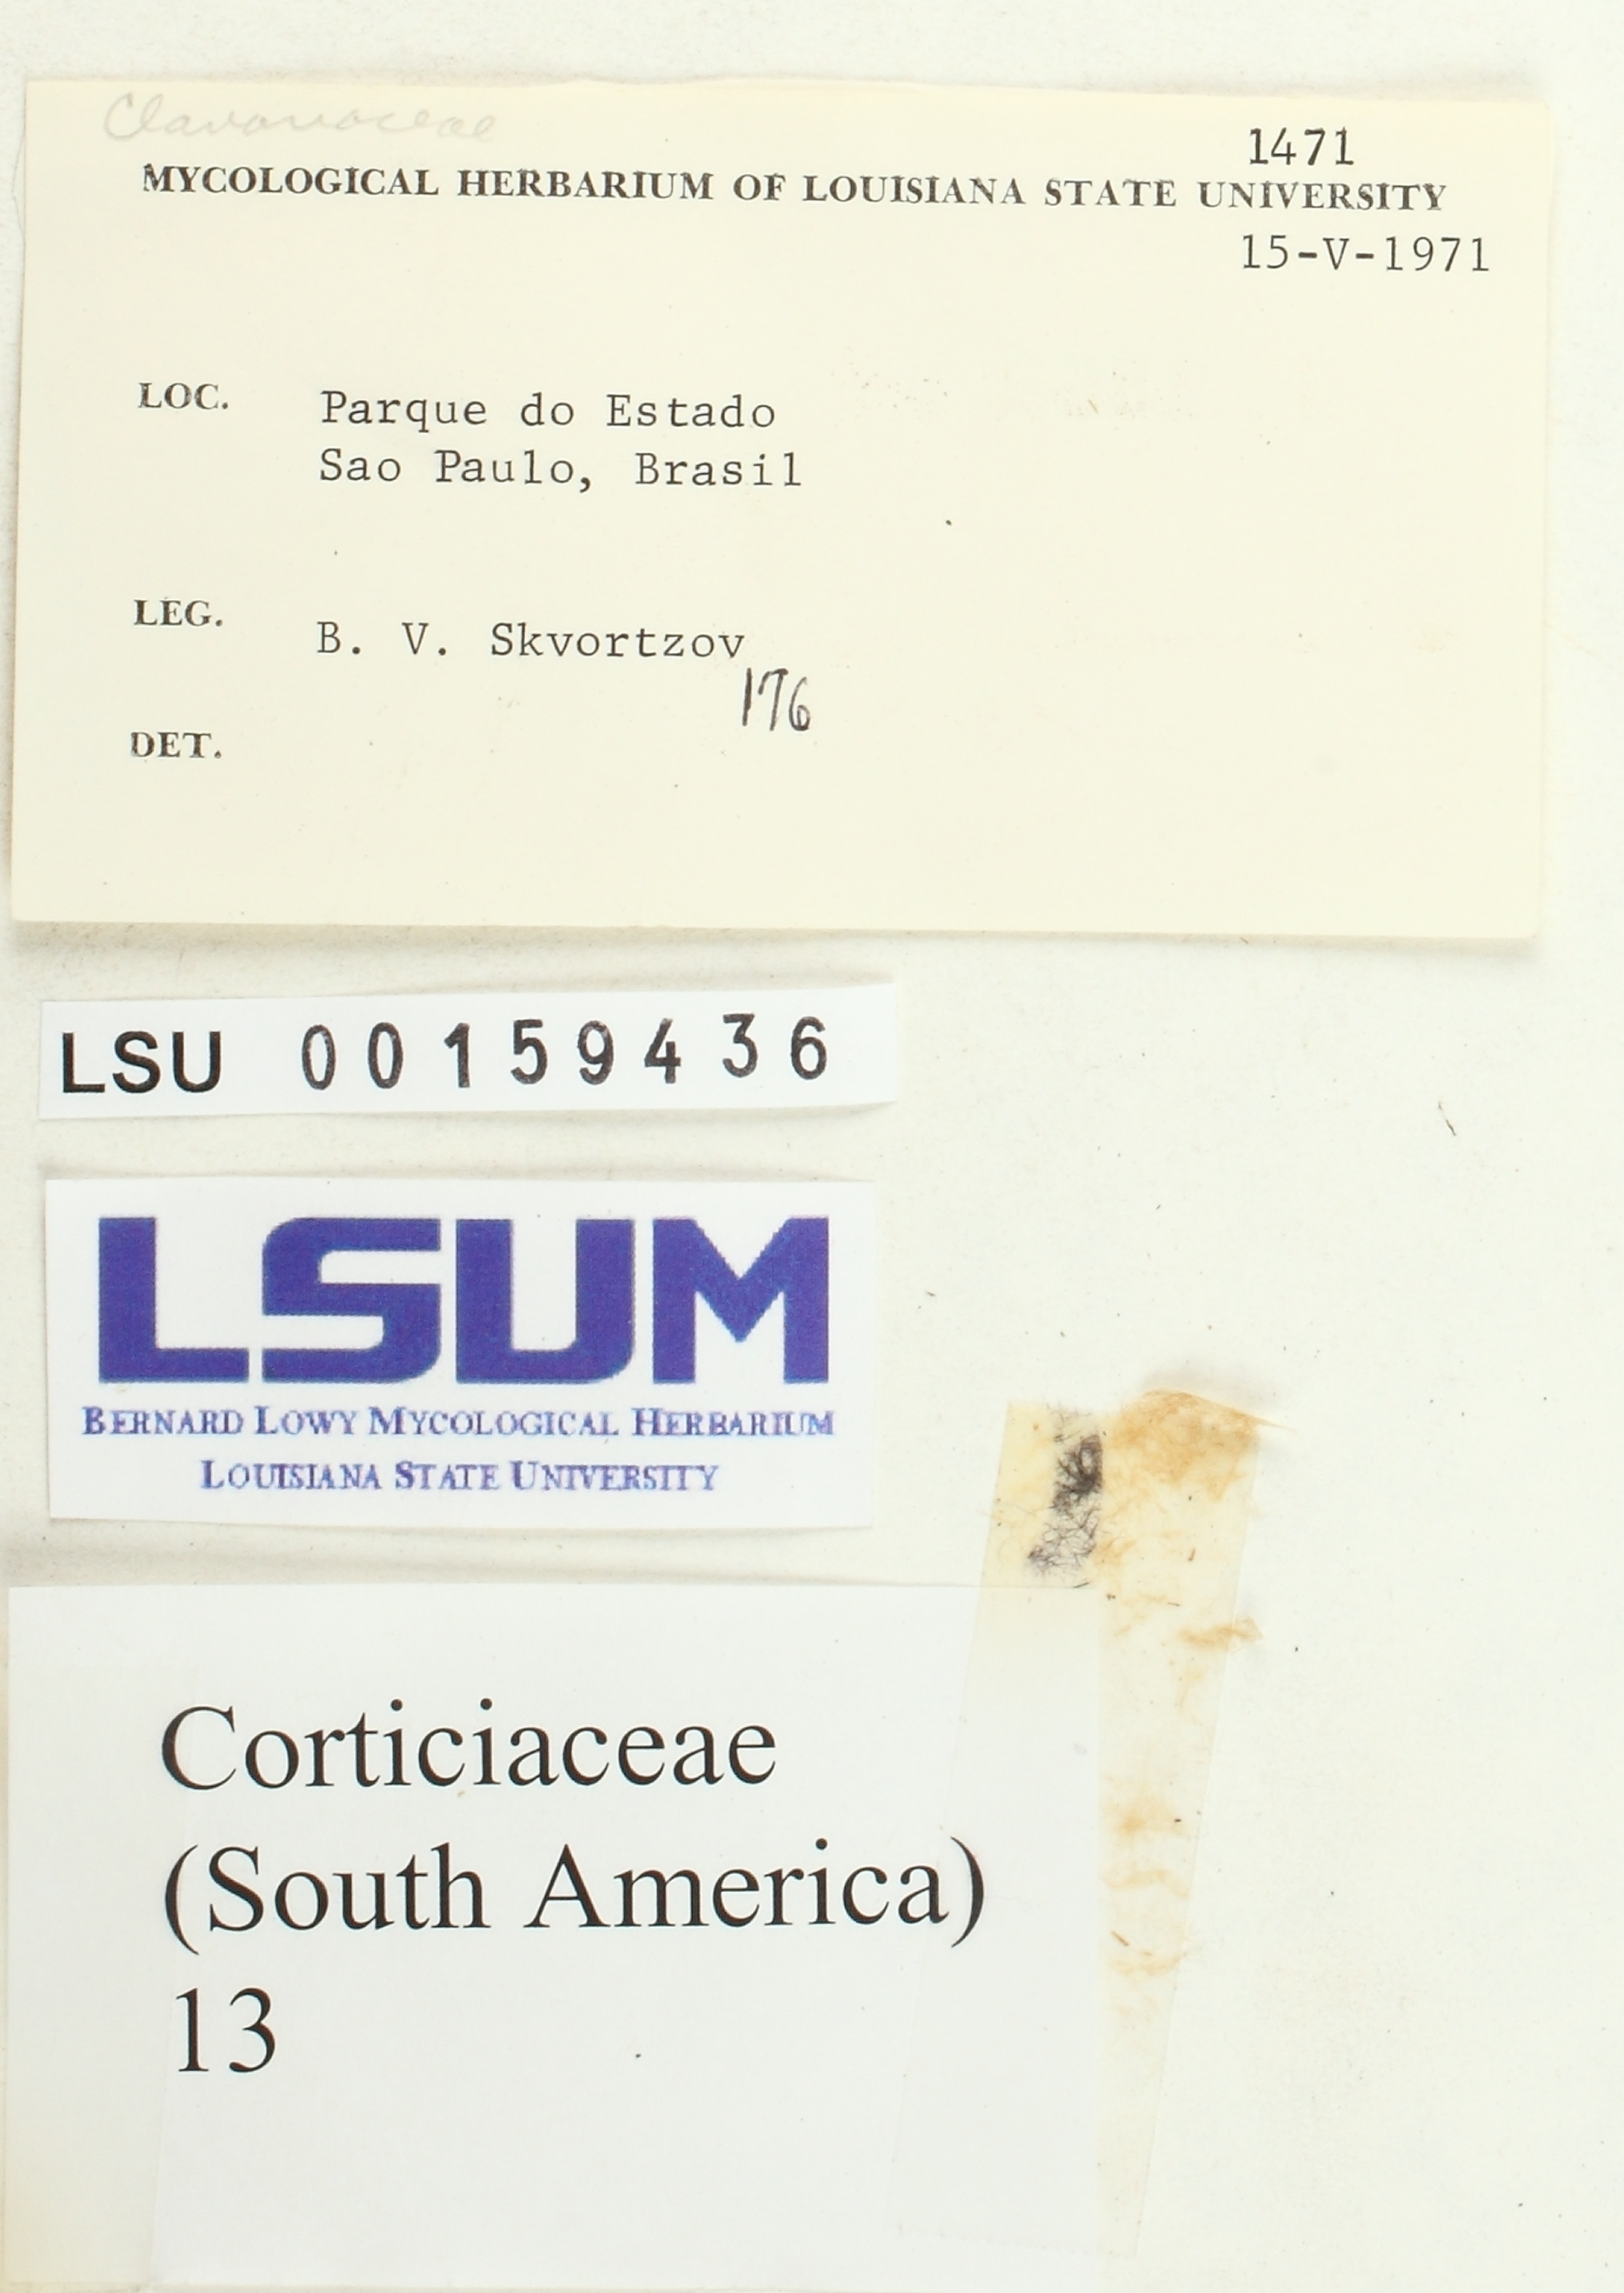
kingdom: Fungi
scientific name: Fungi
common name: Fungi
